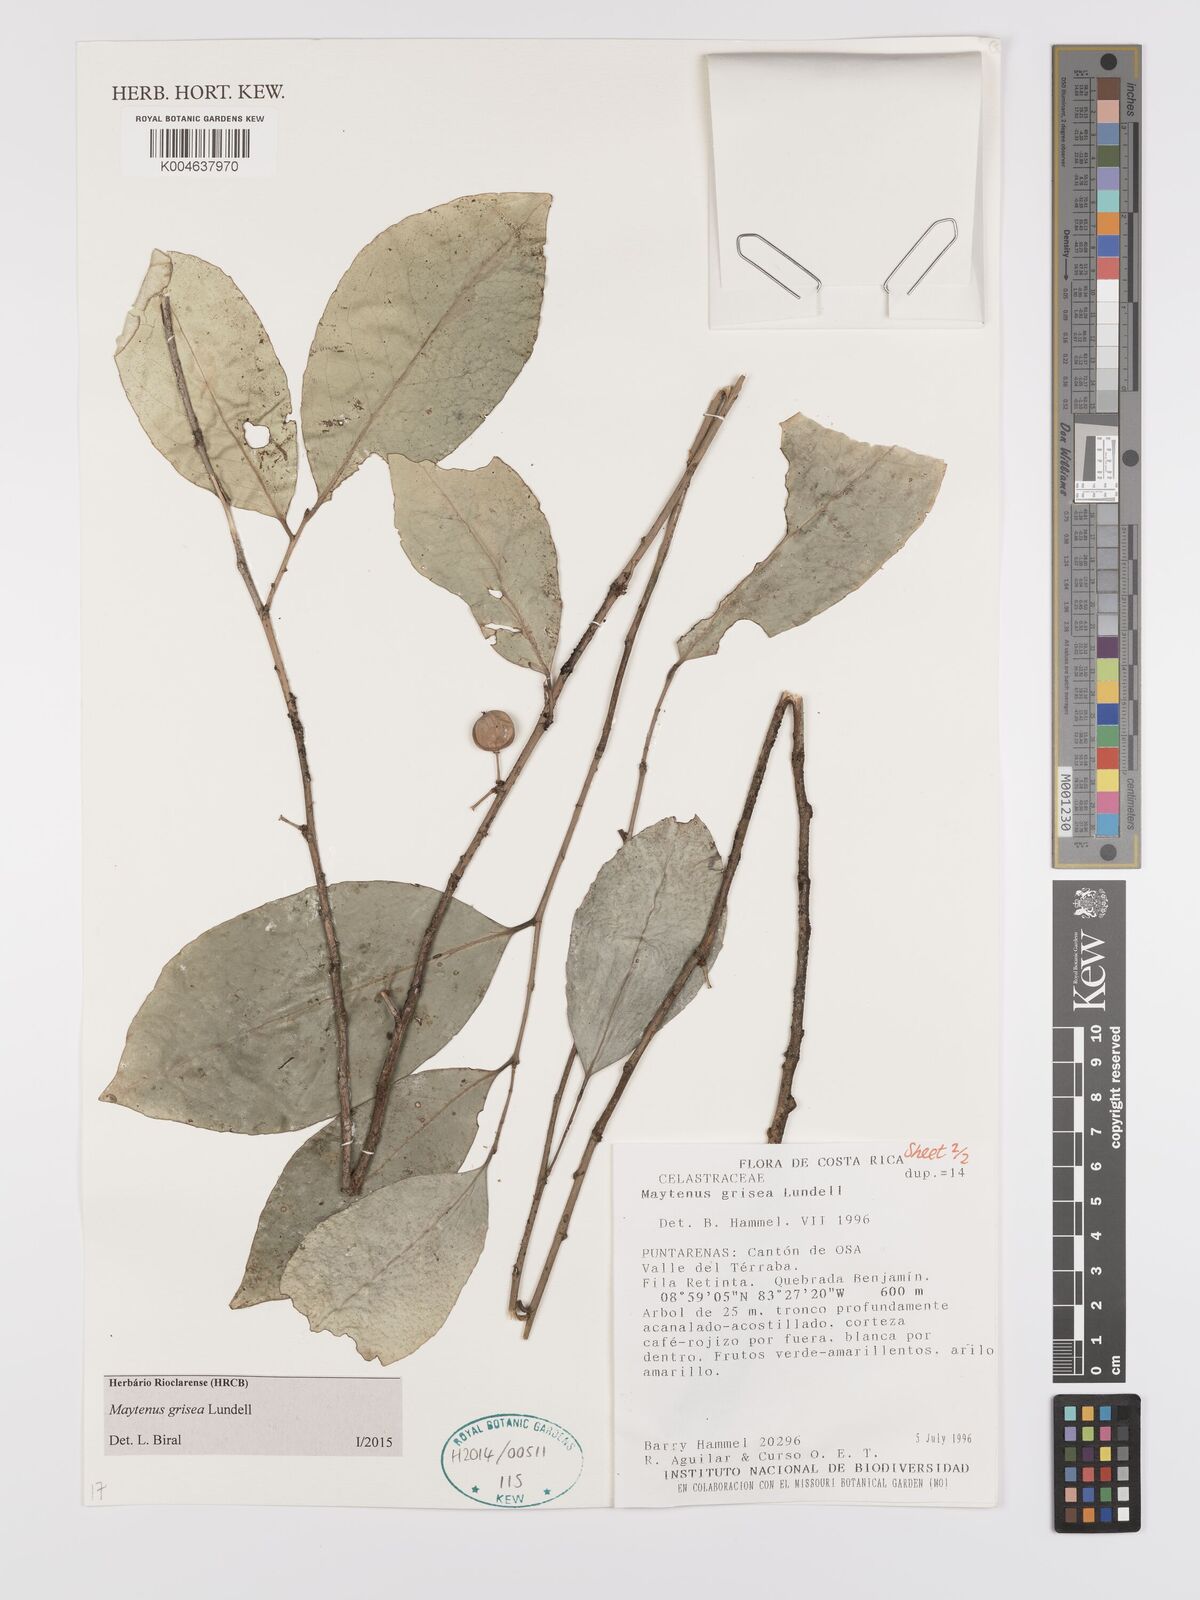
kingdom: Plantae
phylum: Tracheophyta
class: Magnoliopsida
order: Celastrales
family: Celastraceae
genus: Maytenus
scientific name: Maytenus grisea
